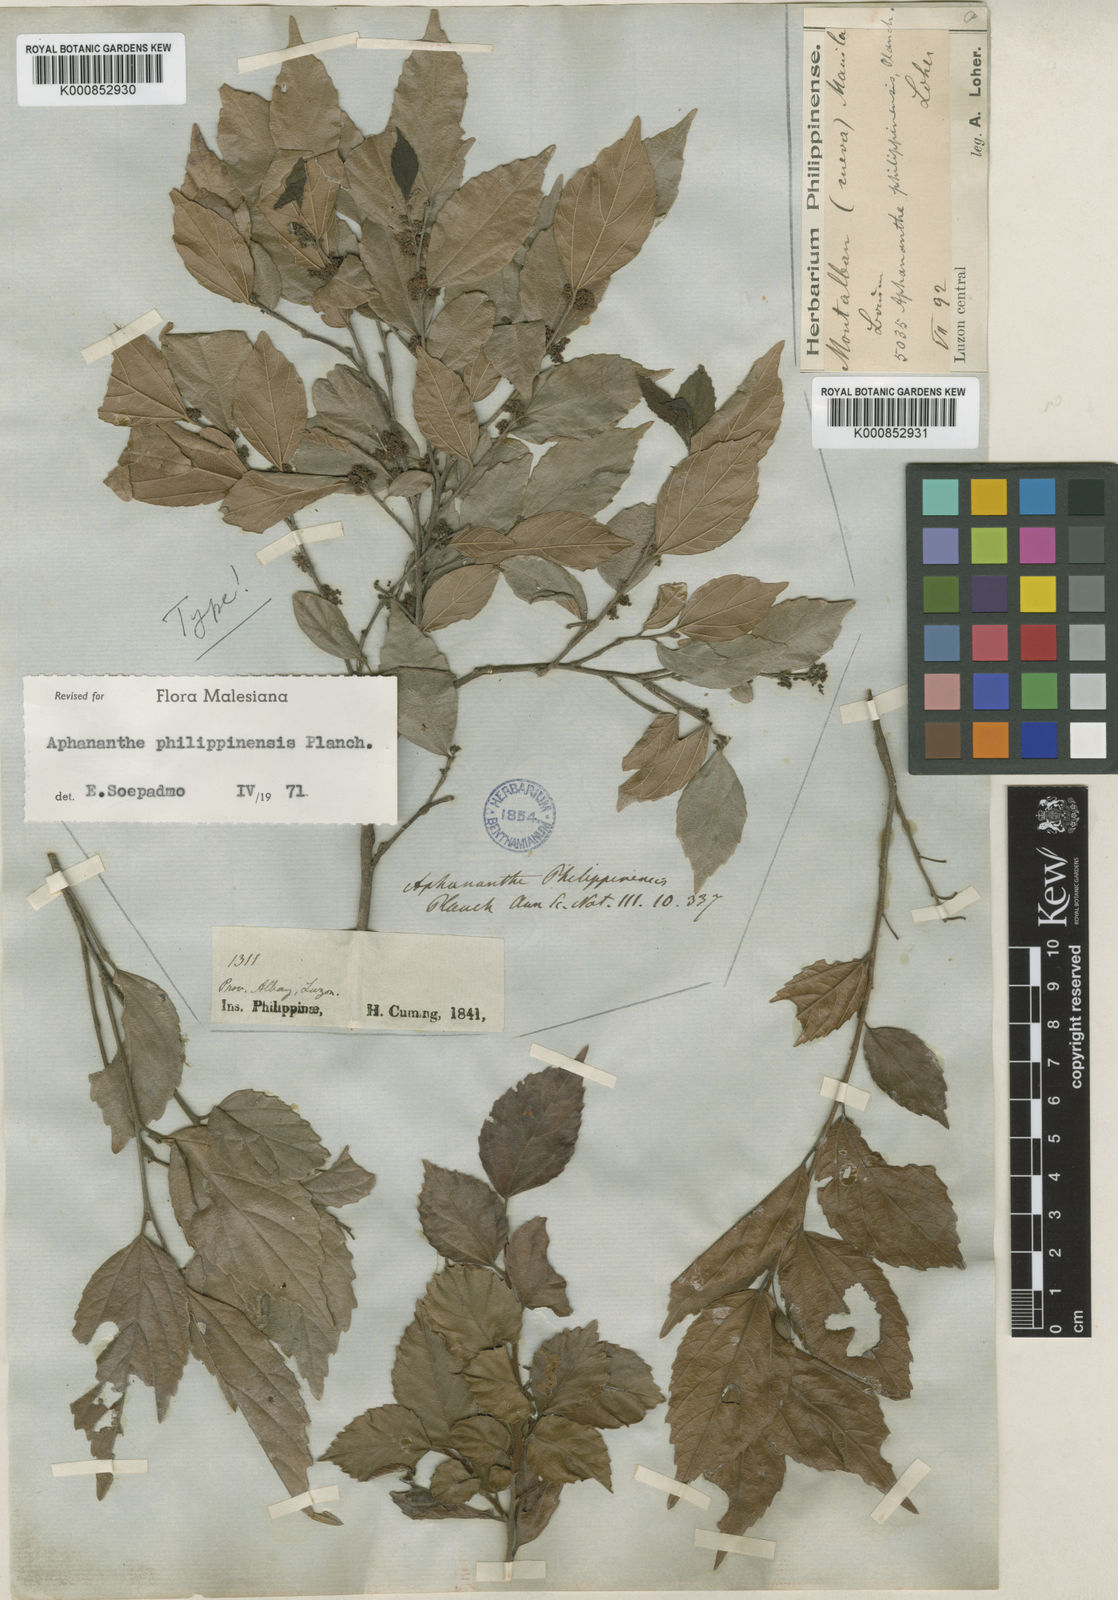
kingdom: Plantae
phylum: Tracheophyta
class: Magnoliopsida
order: Rosales
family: Cannabaceae
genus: Aphananthe
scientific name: Aphananthe philippinensis
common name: Wild holly
